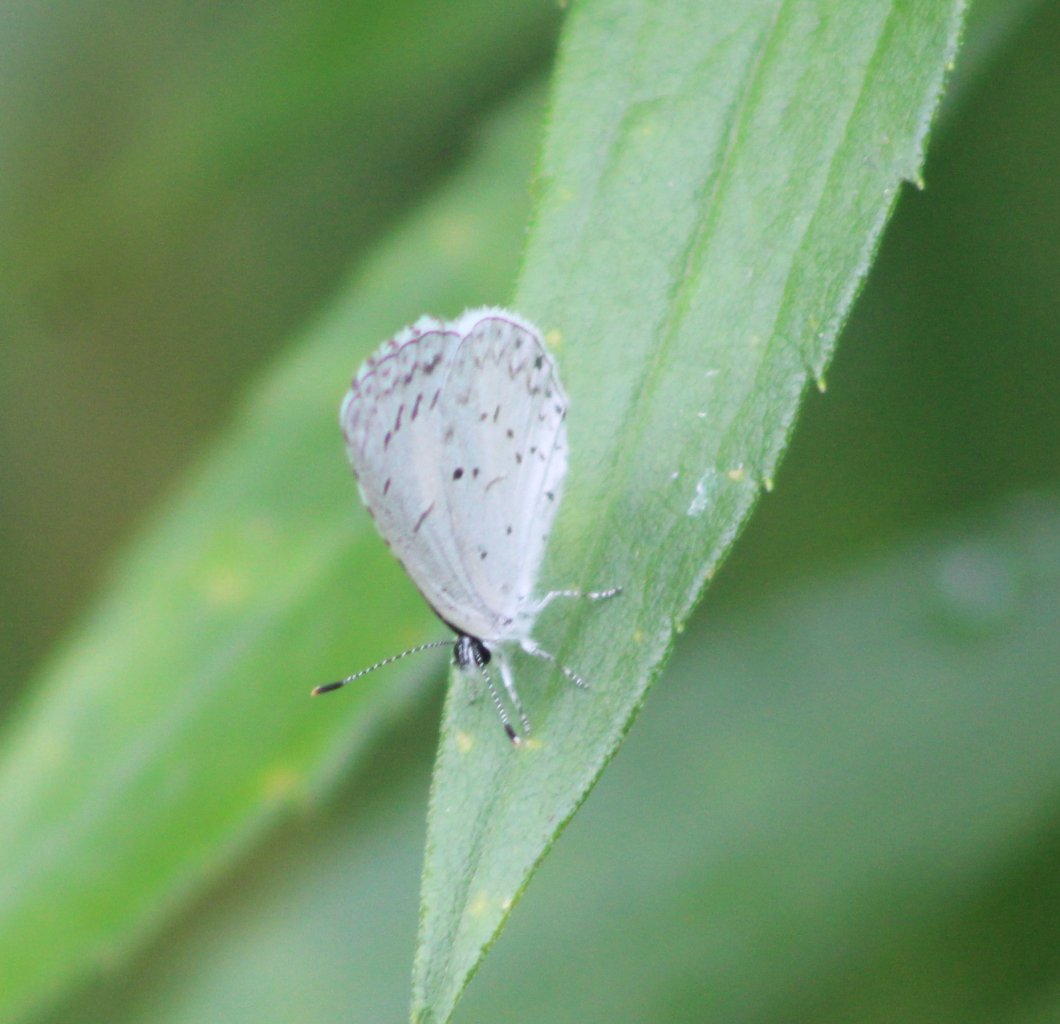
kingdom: Animalia
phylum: Arthropoda
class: Insecta
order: Lepidoptera
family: Lycaenidae
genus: Celastrina
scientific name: Celastrina
